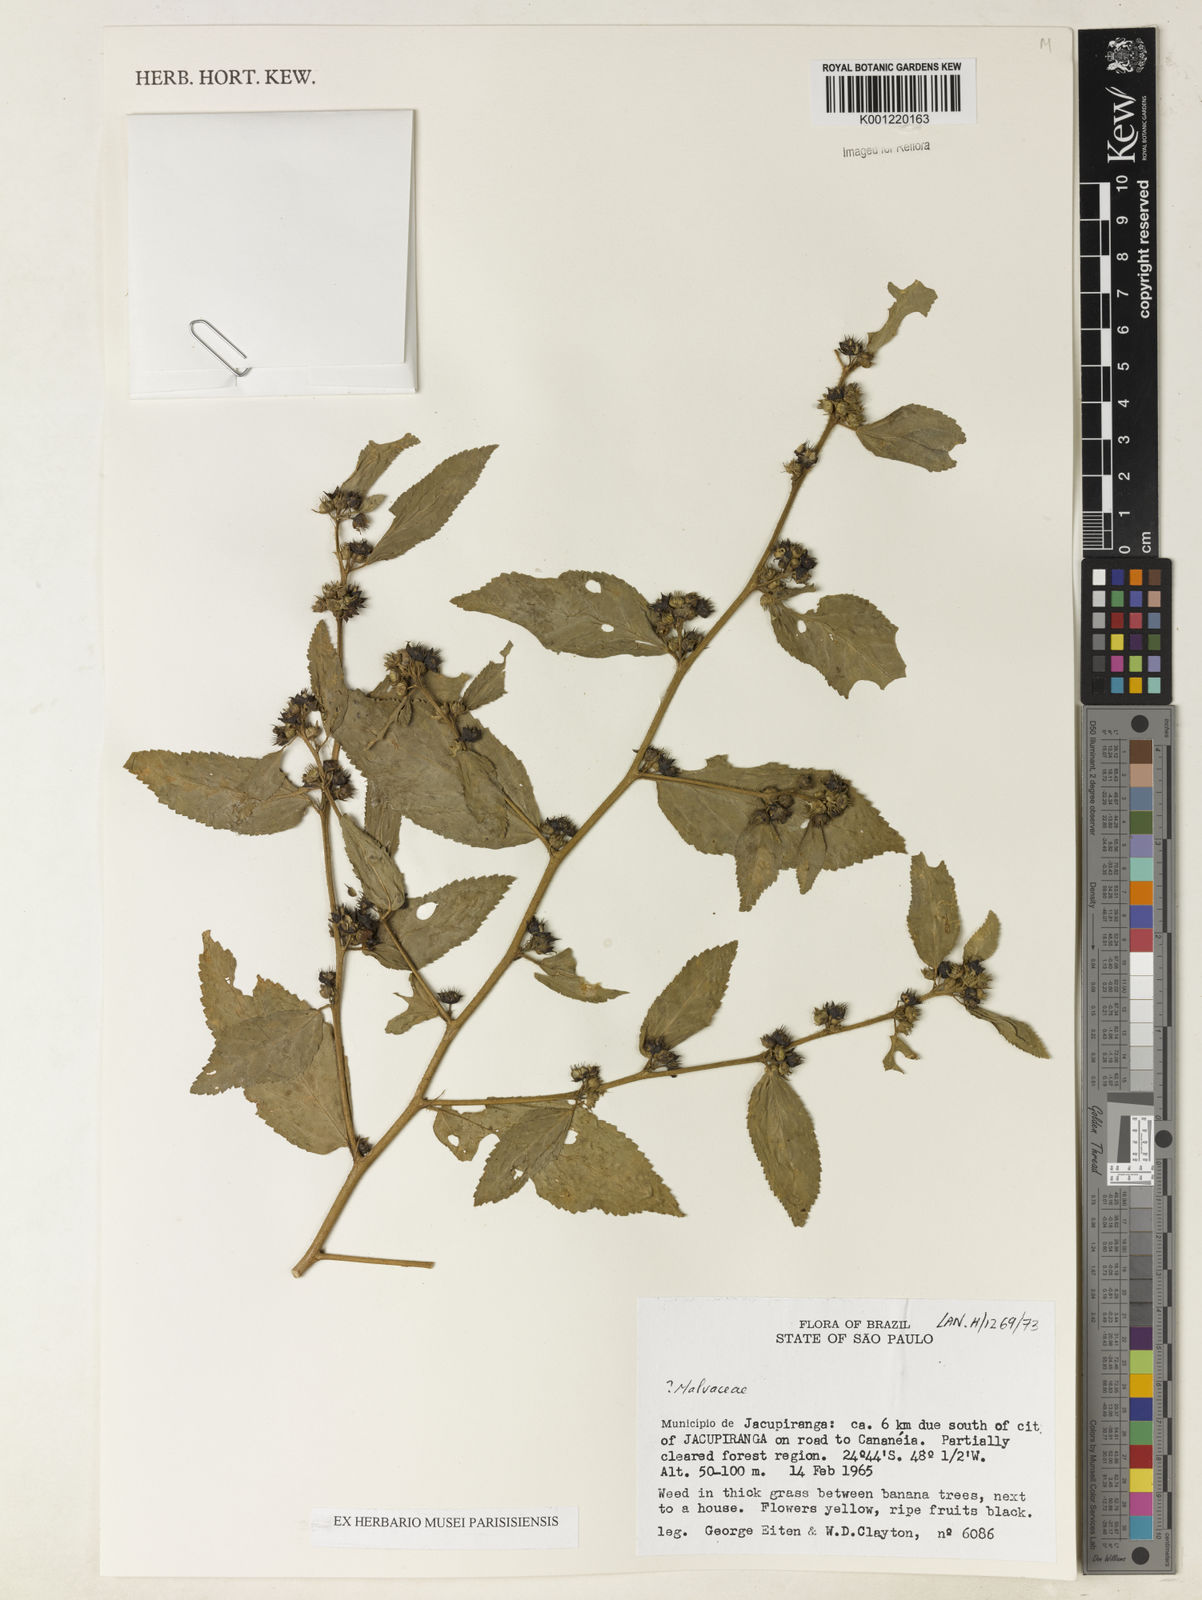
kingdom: Plantae
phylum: Tracheophyta
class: Magnoliopsida
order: Malvales
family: Malvaceae
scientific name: Malvaceae
